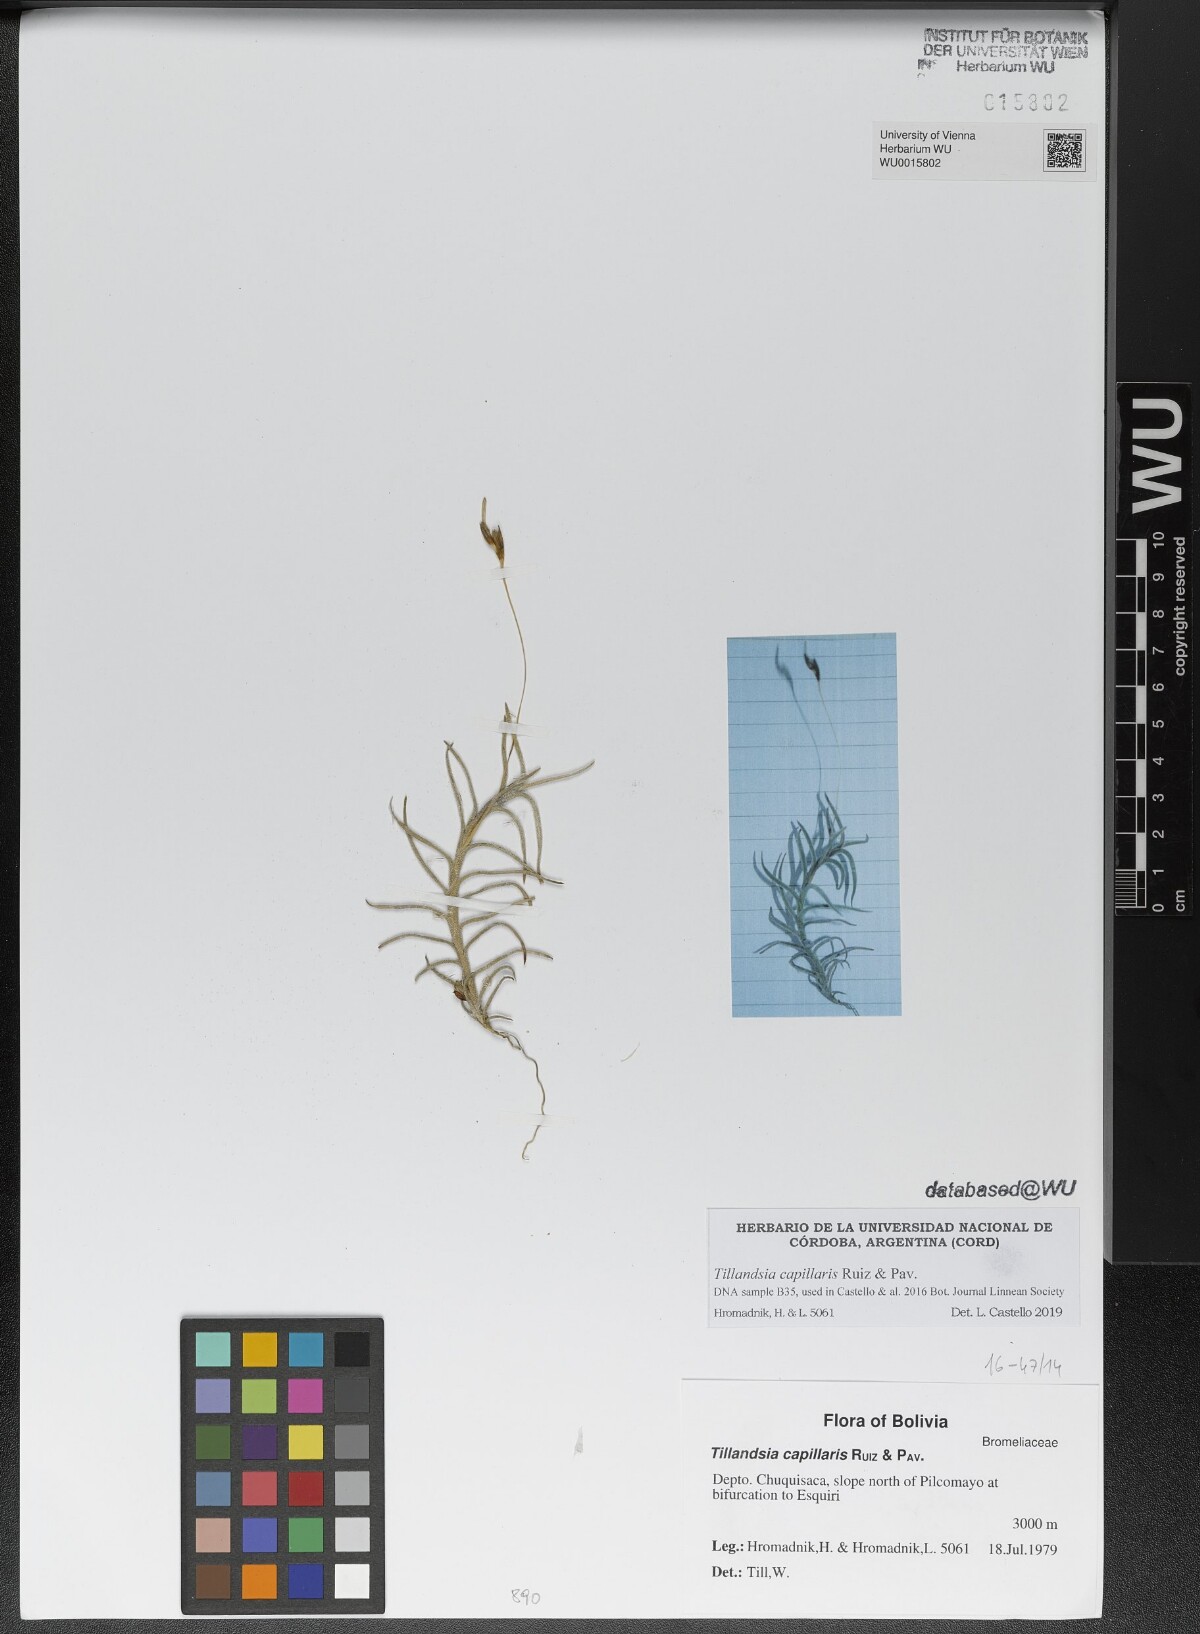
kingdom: Plantae
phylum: Tracheophyta
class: Liliopsida
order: Poales
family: Bromeliaceae
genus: Tillandsia
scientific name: Tillandsia capillaris
